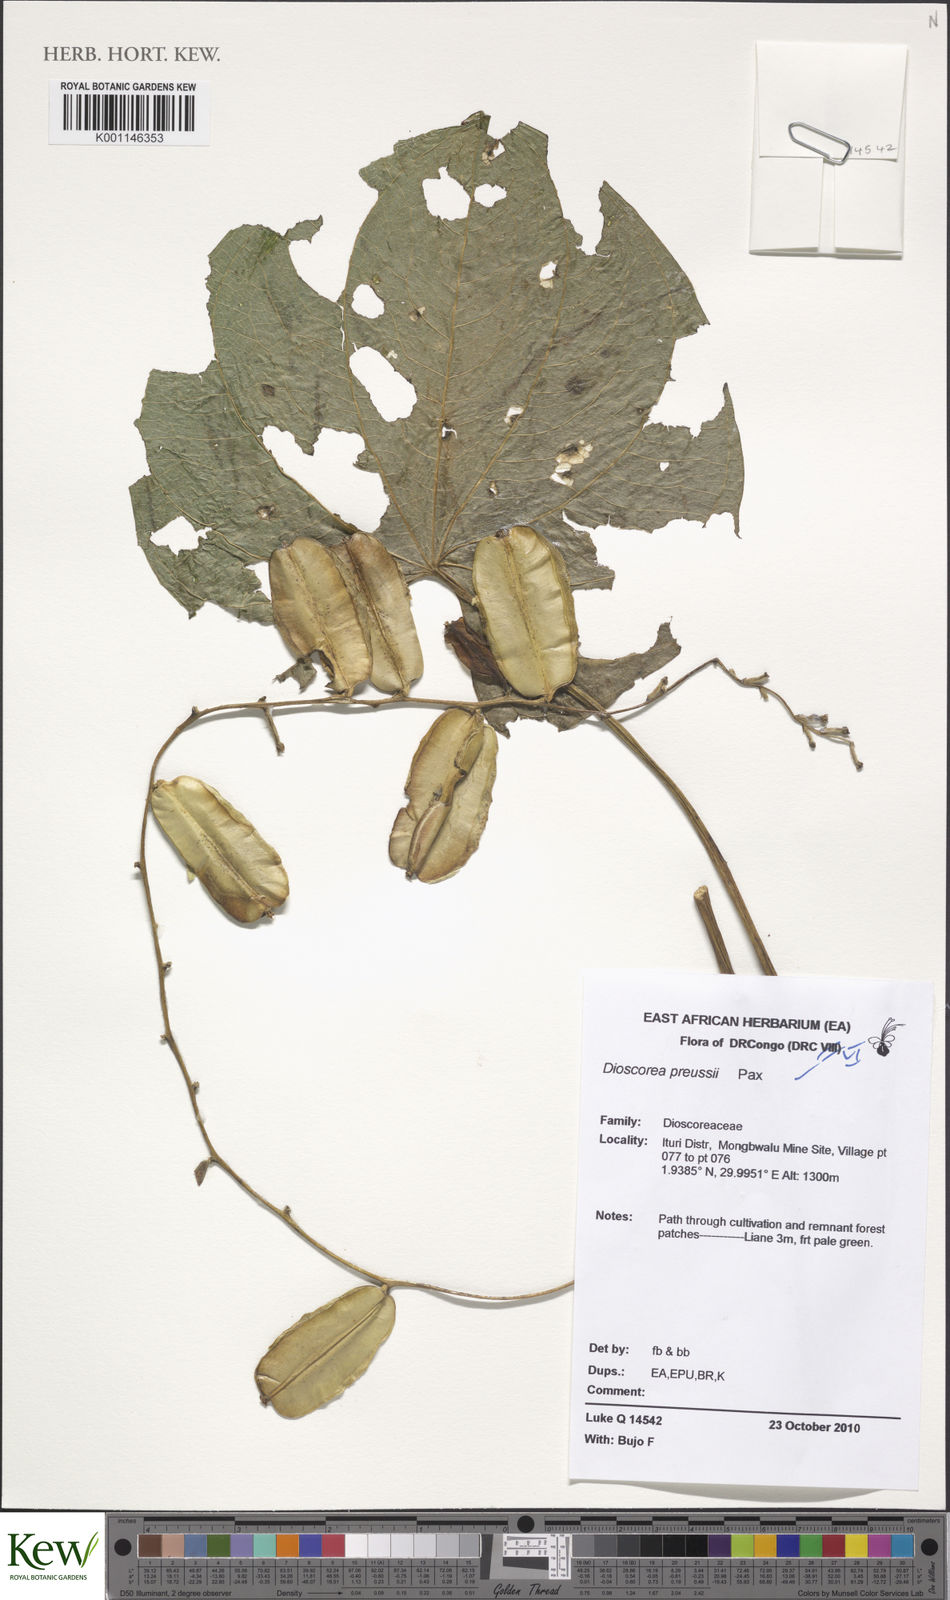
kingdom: Plantae
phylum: Tracheophyta
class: Liliopsida
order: Dioscoreales
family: Dioscoreaceae
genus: Dioscorea
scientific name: Dioscorea preussii
